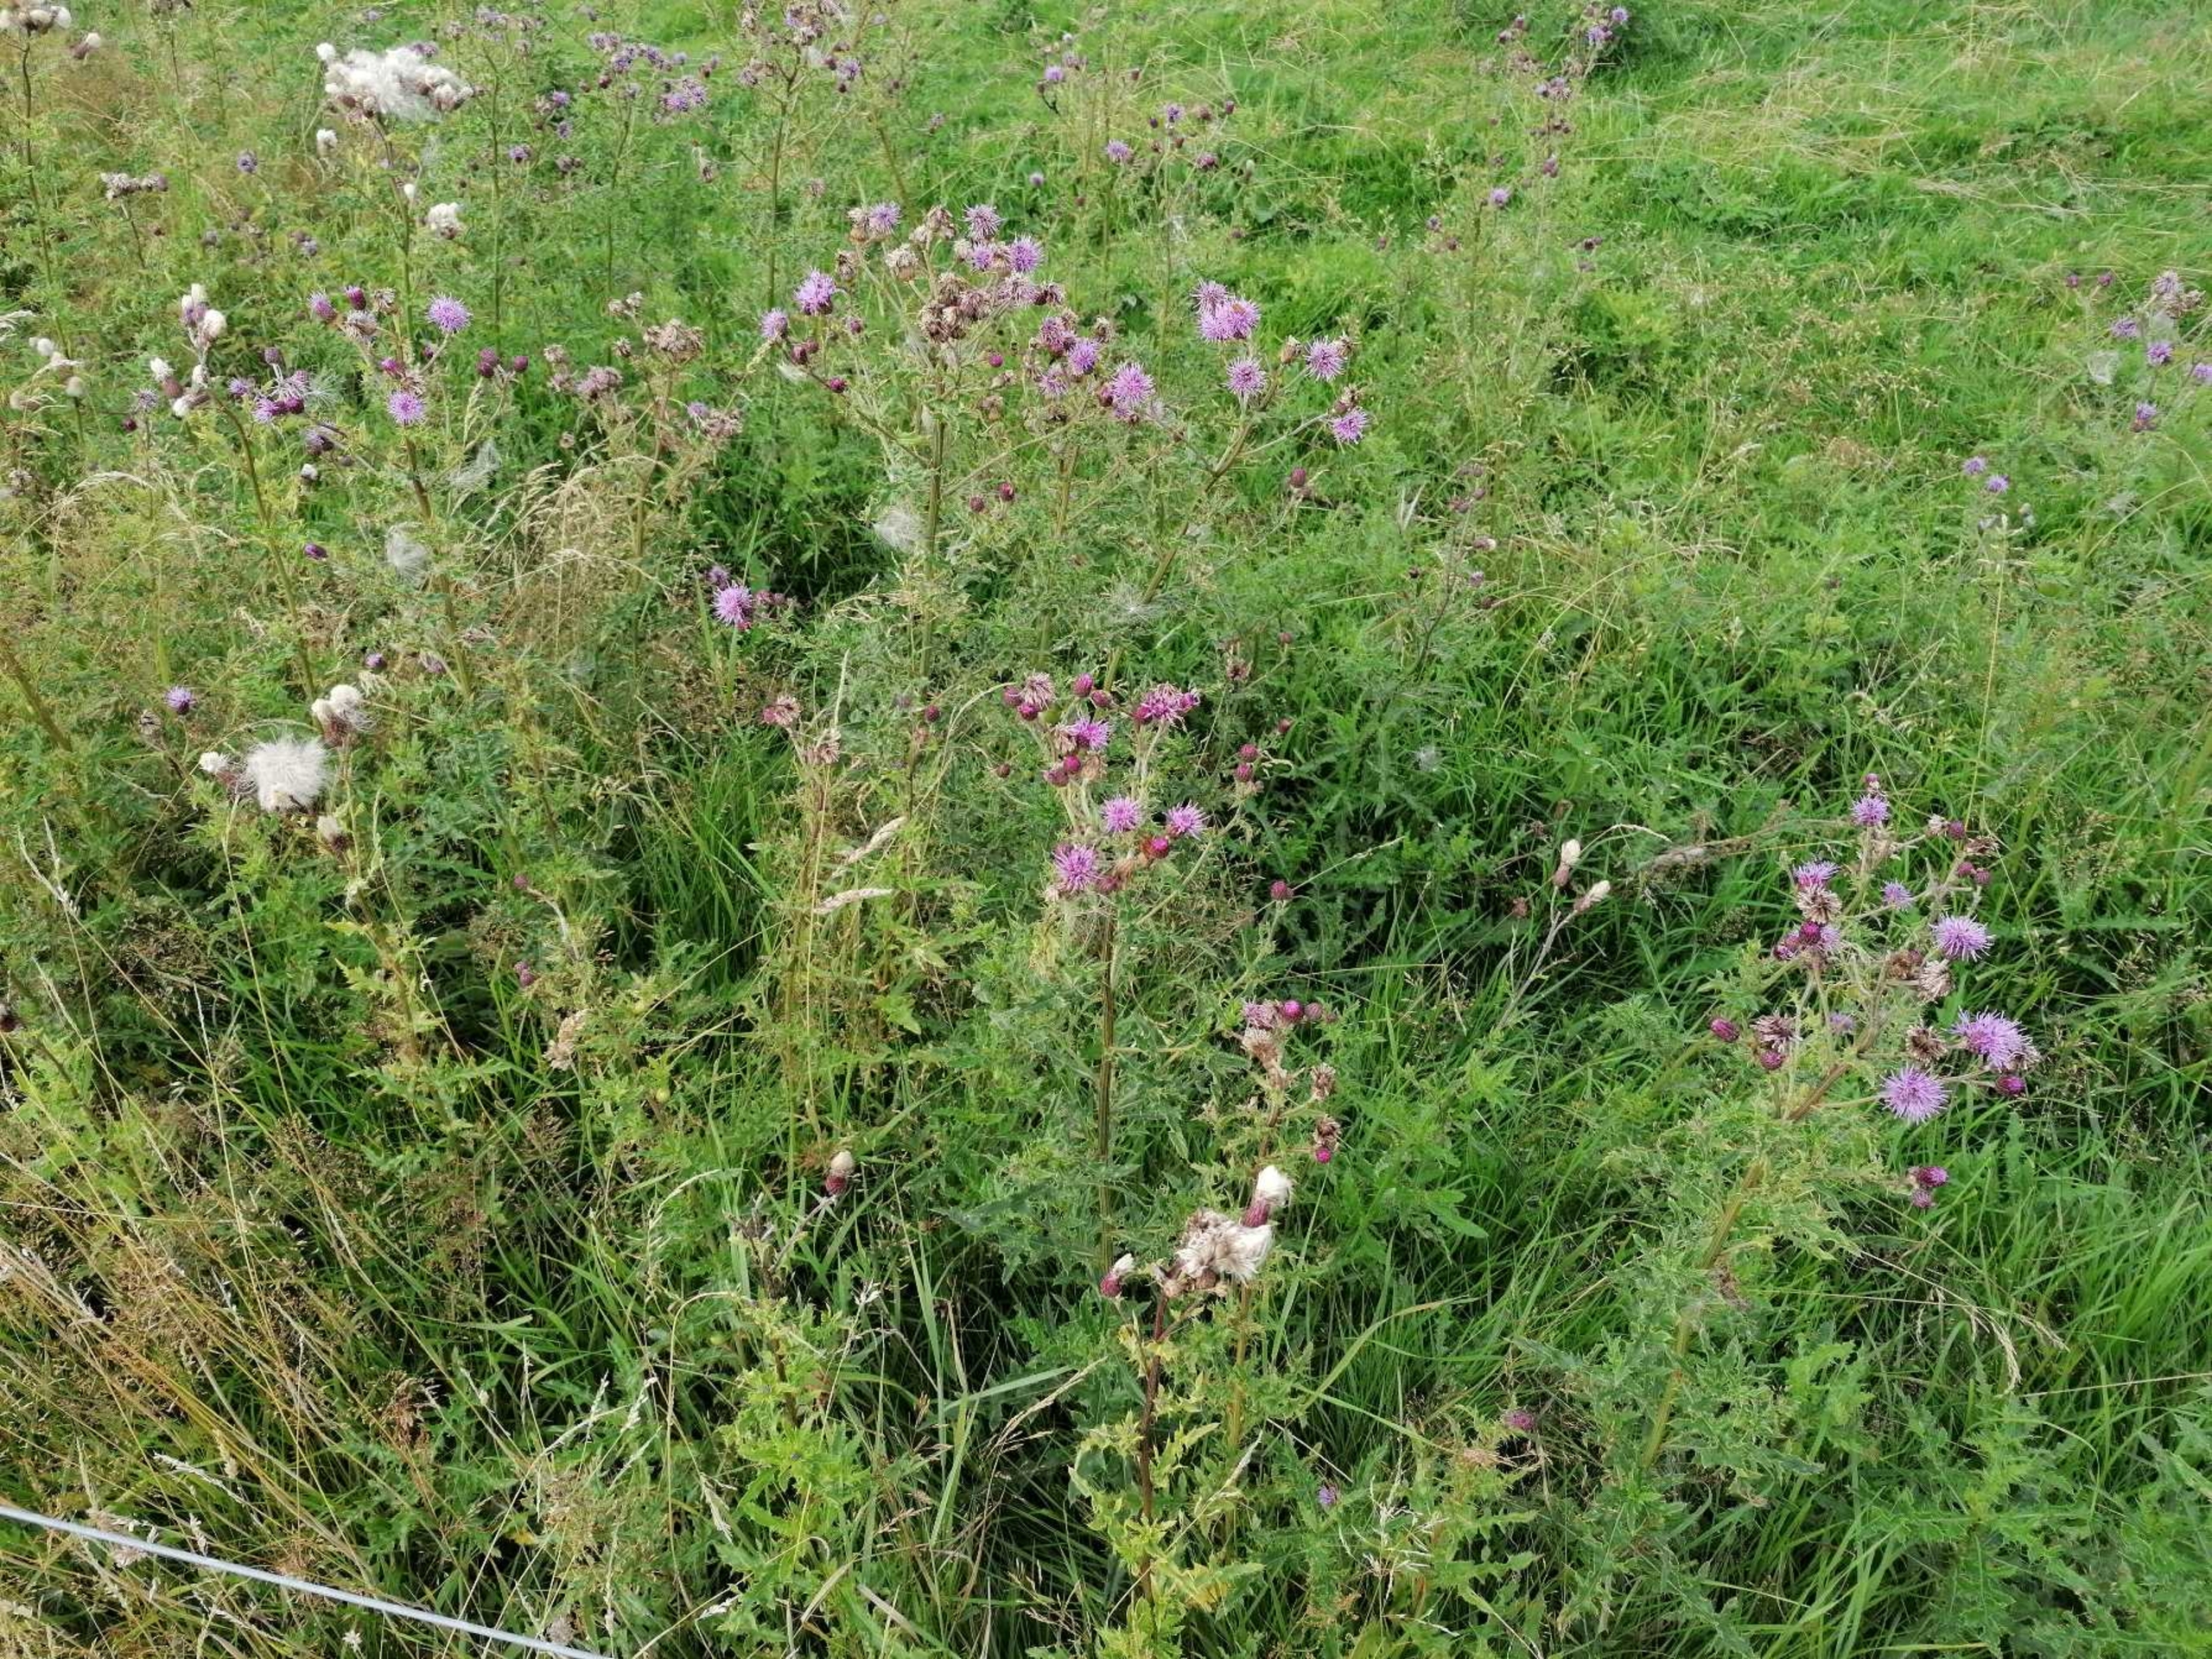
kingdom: Plantae
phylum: Tracheophyta
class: Magnoliopsida
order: Asterales
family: Asteraceae
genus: Cirsium
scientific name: Cirsium arvense
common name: Ager-tidsel
